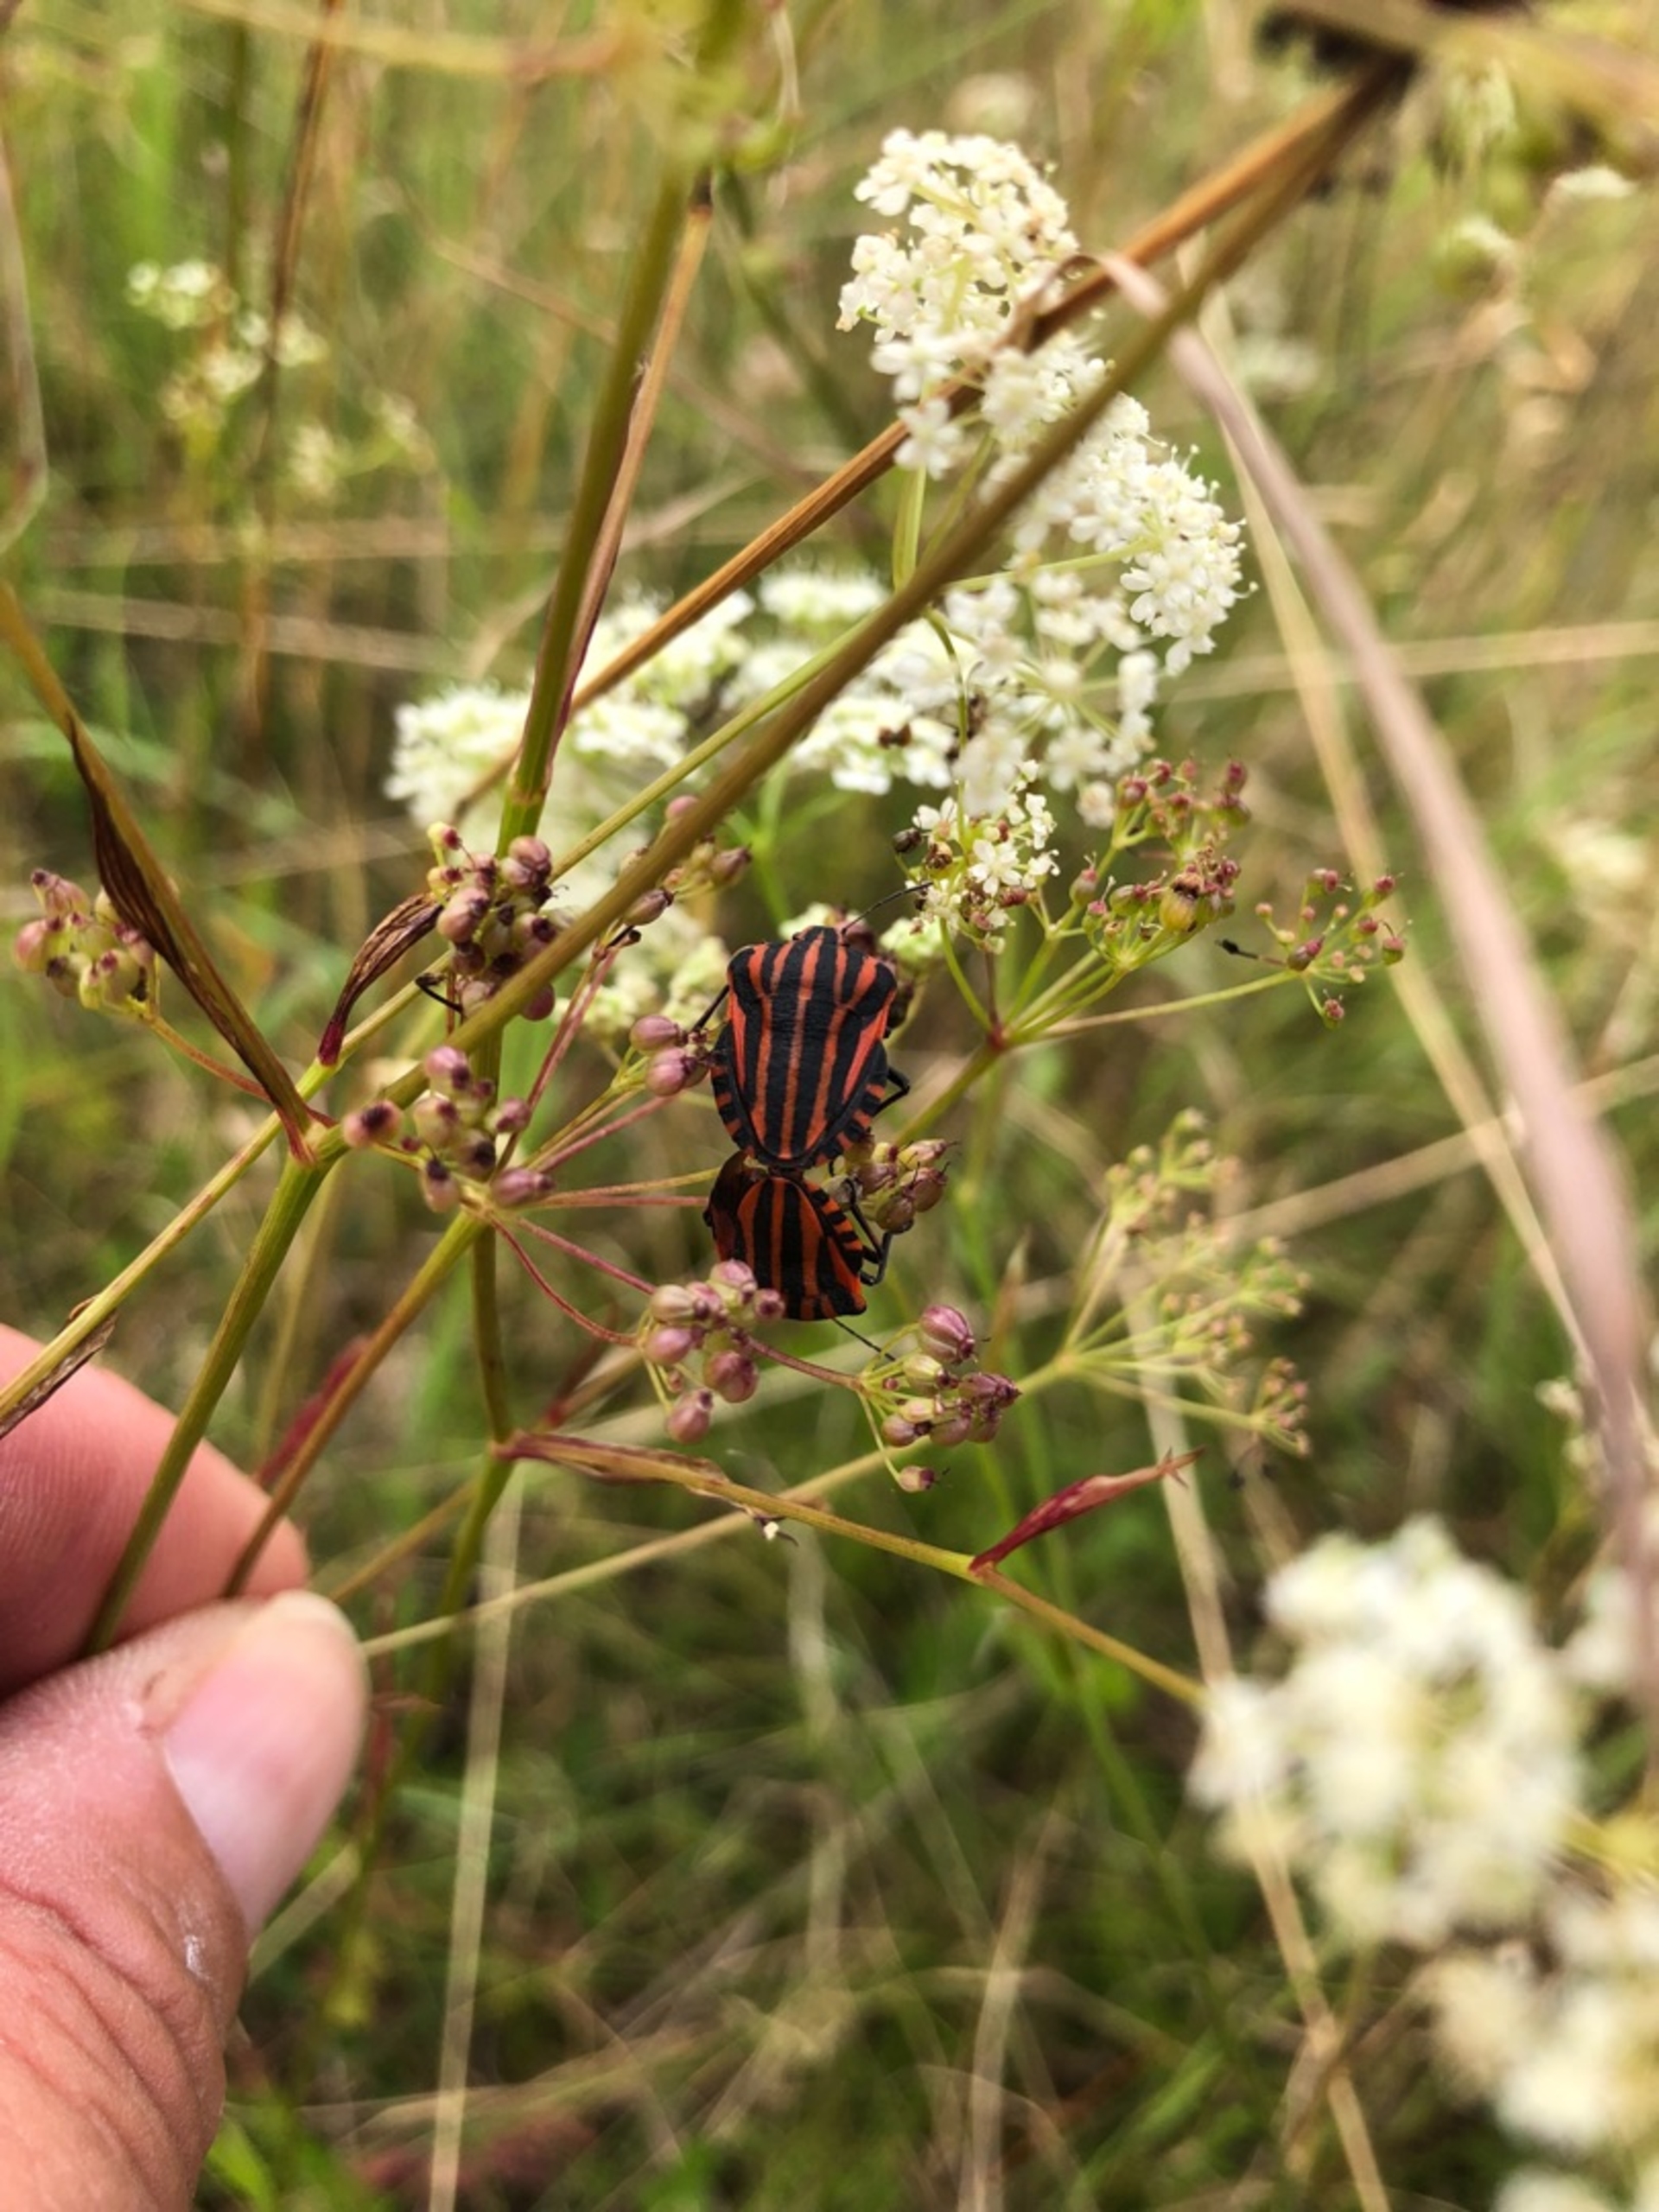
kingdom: Animalia
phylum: Arthropoda
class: Insecta
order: Hemiptera
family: Pentatomidae
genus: Graphosoma
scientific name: Graphosoma italicum
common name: Stribetæge
